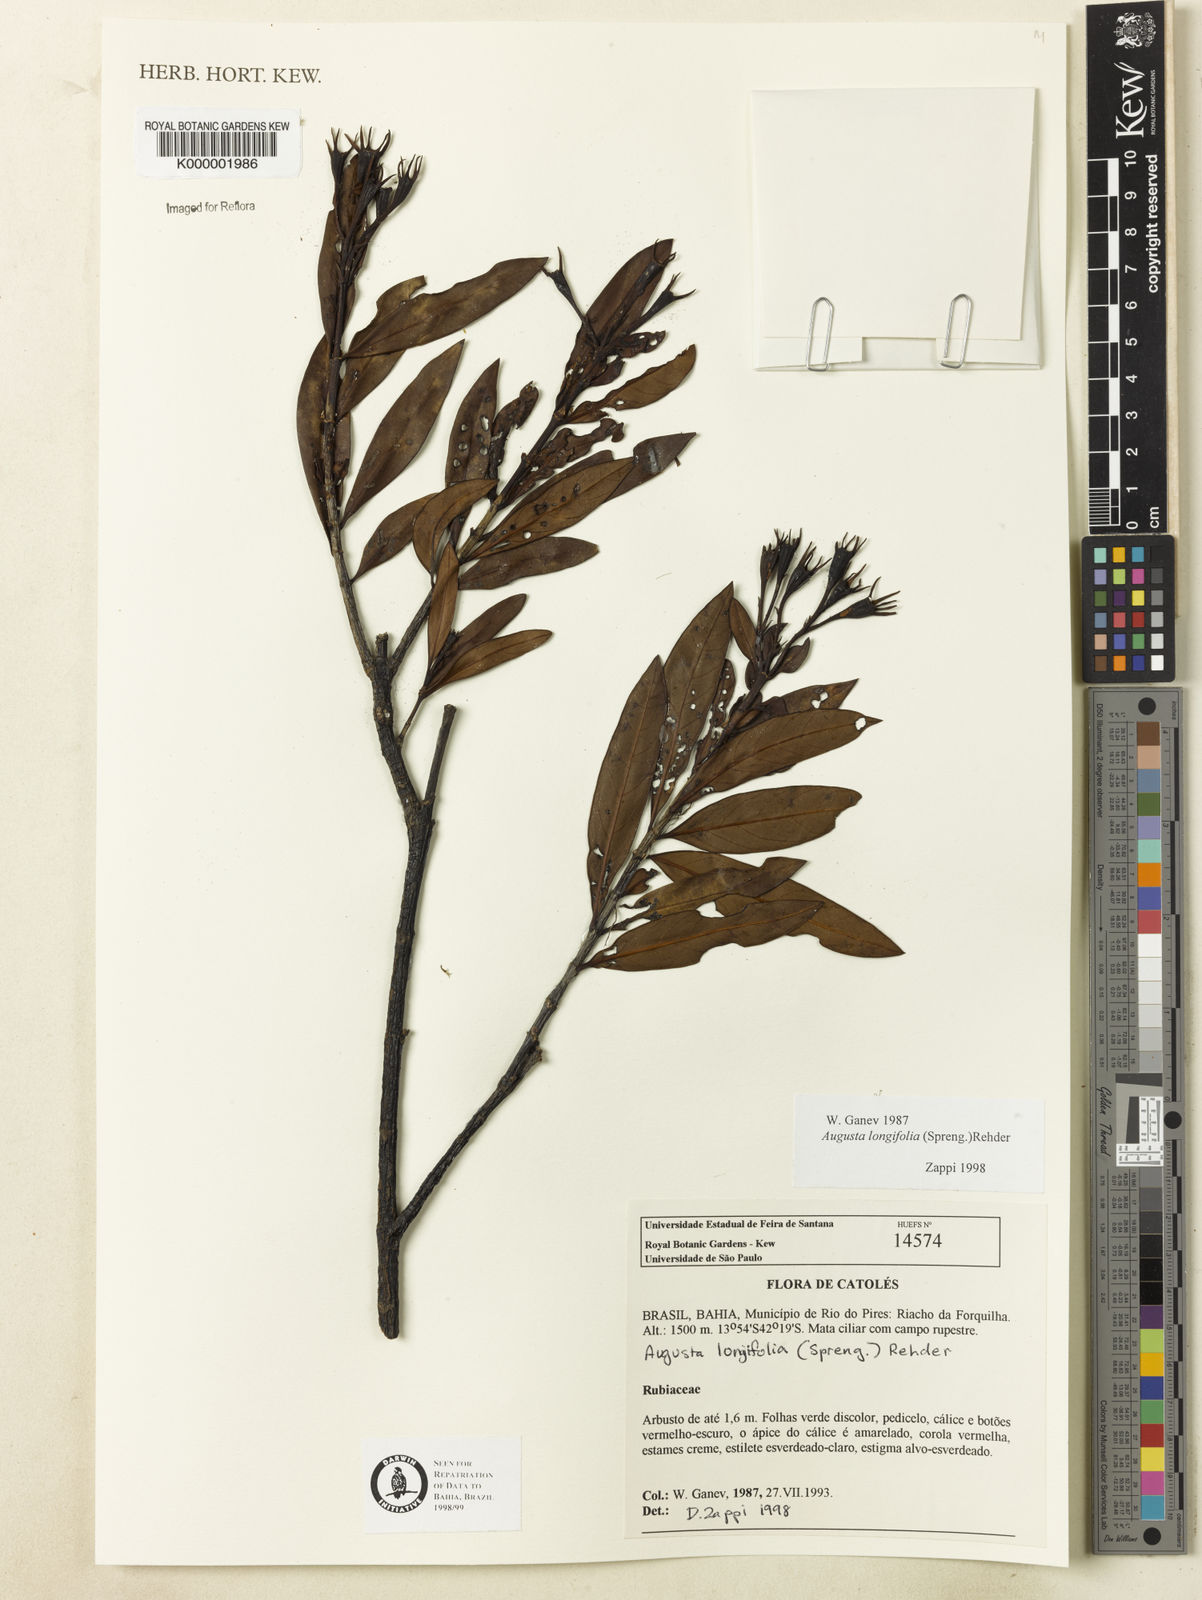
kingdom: Plantae
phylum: Tracheophyta
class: Magnoliopsida
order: Gentianales
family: Rubiaceae
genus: Augusta
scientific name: Augusta longifolia
